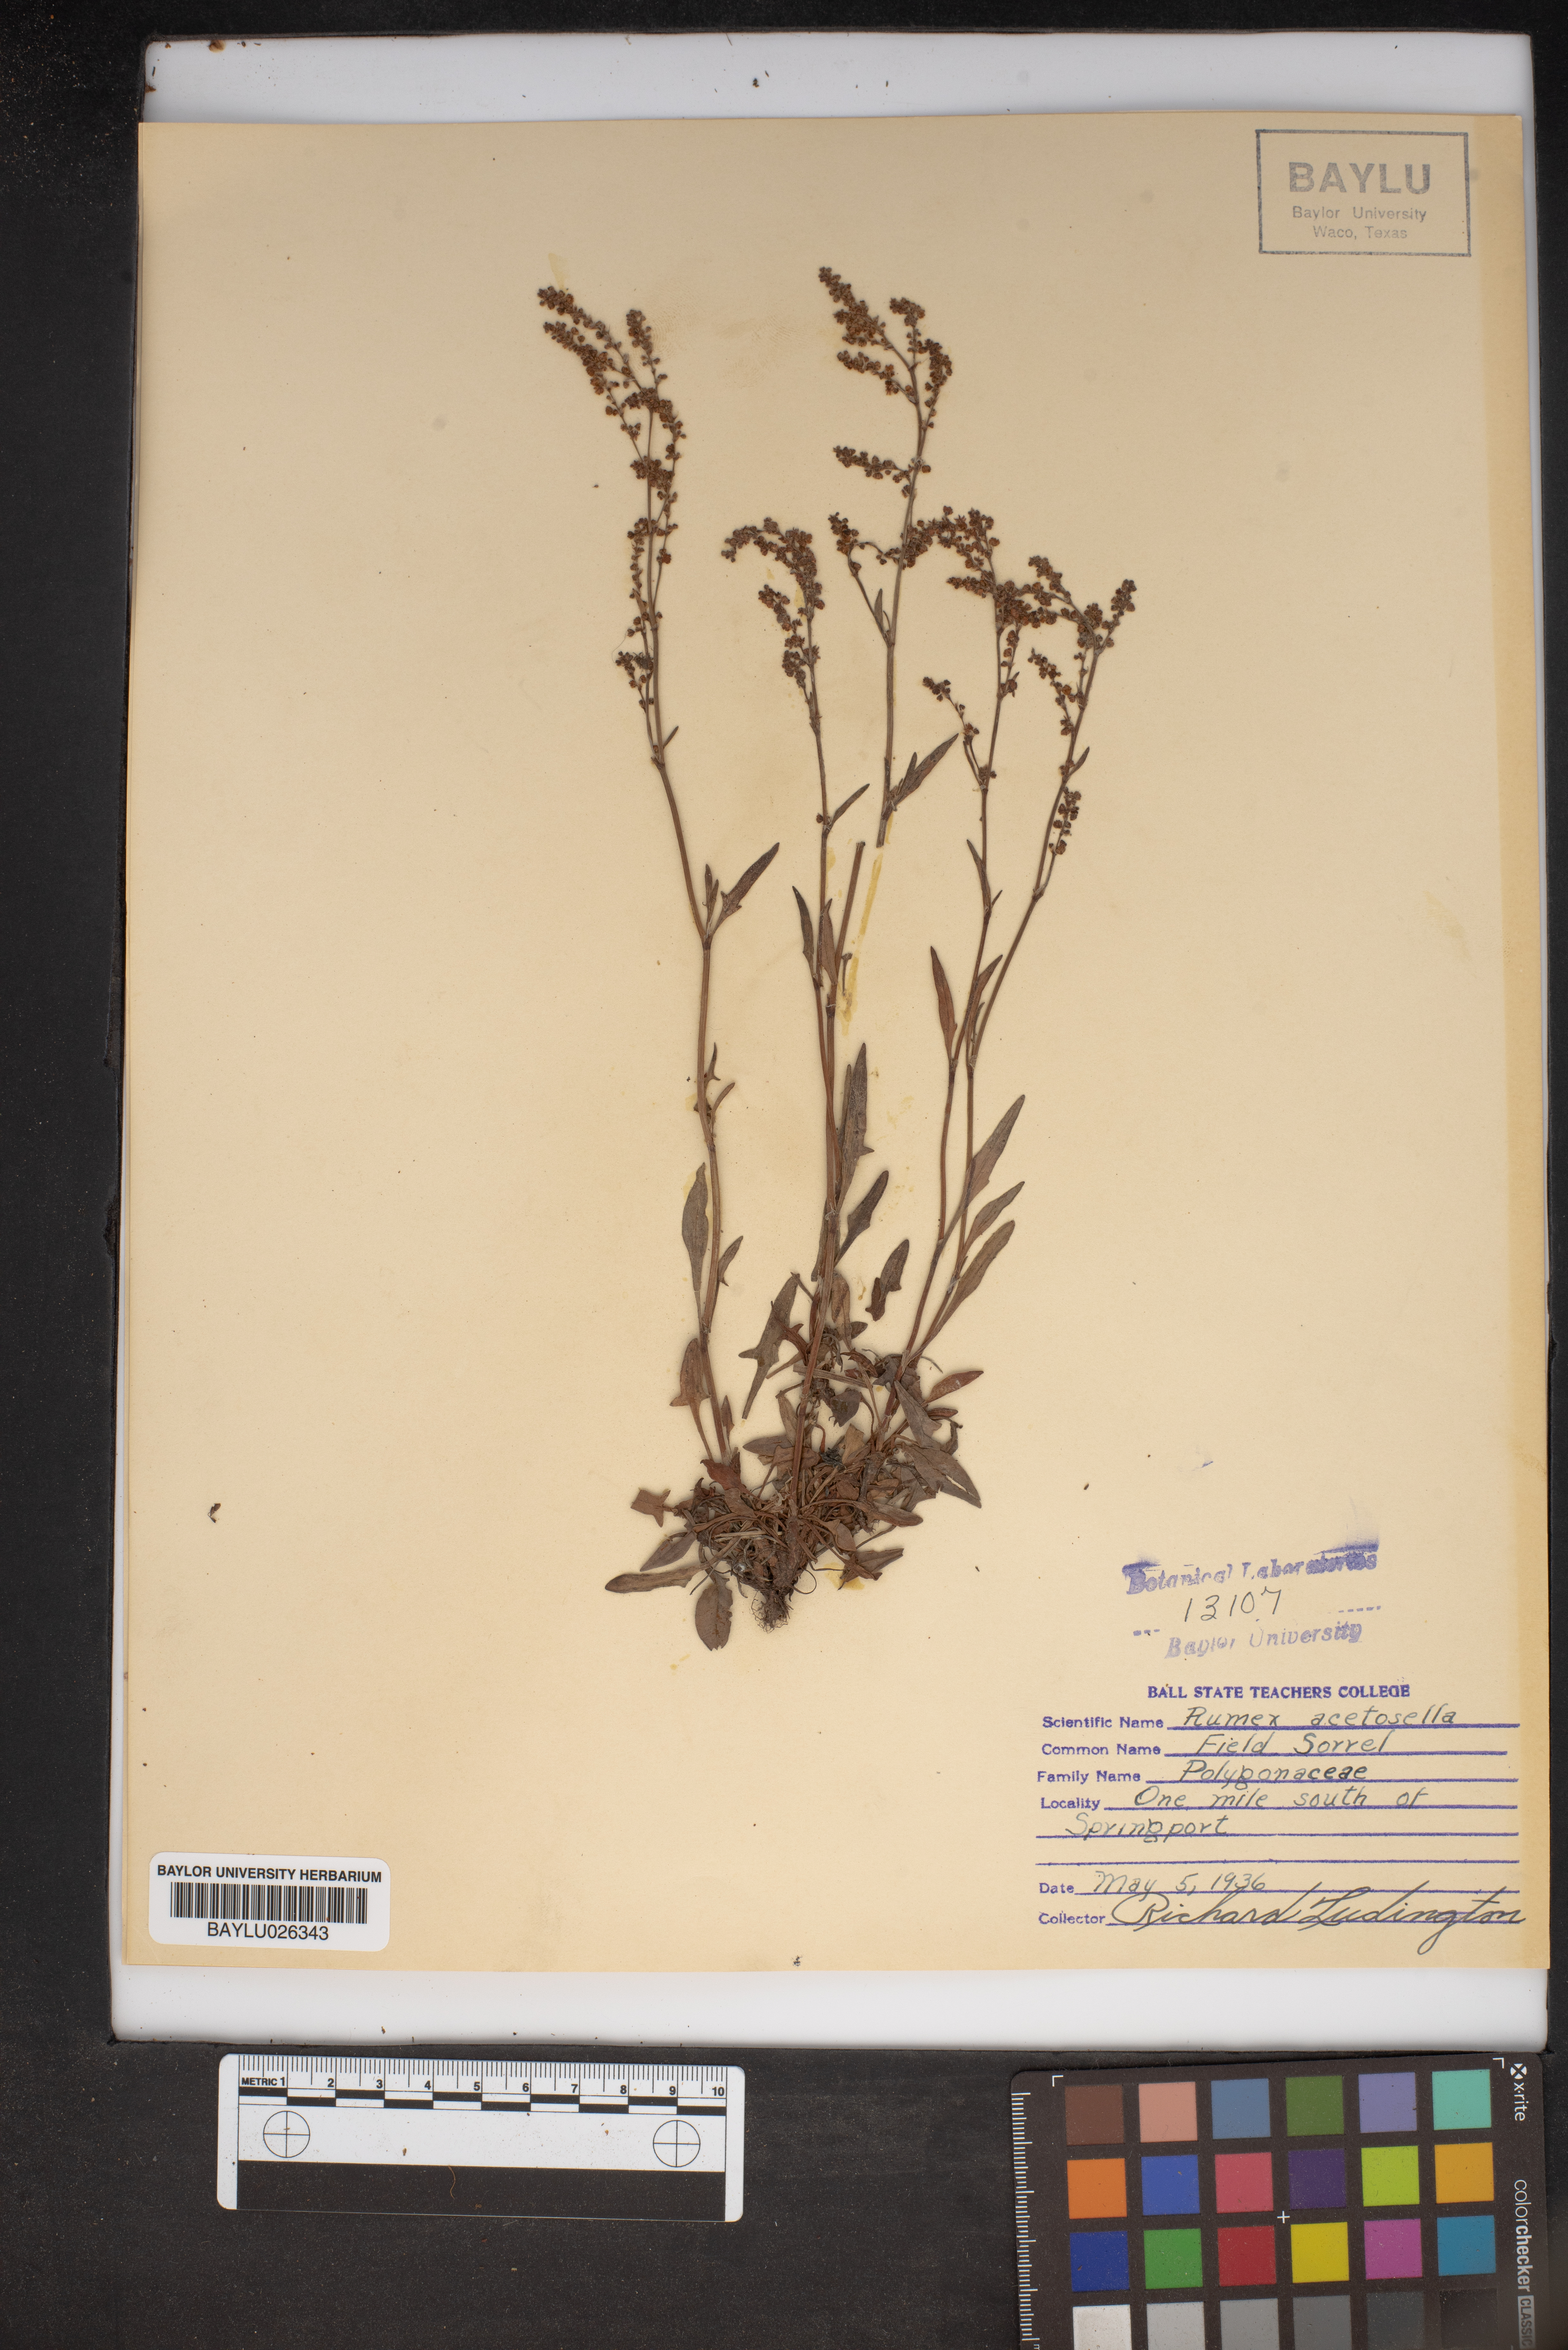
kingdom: Plantae
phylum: Tracheophyta
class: Magnoliopsida
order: Caryophyllales
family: Polygonaceae
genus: Rumex
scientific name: Rumex acetosella
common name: Common sheep sorrel
